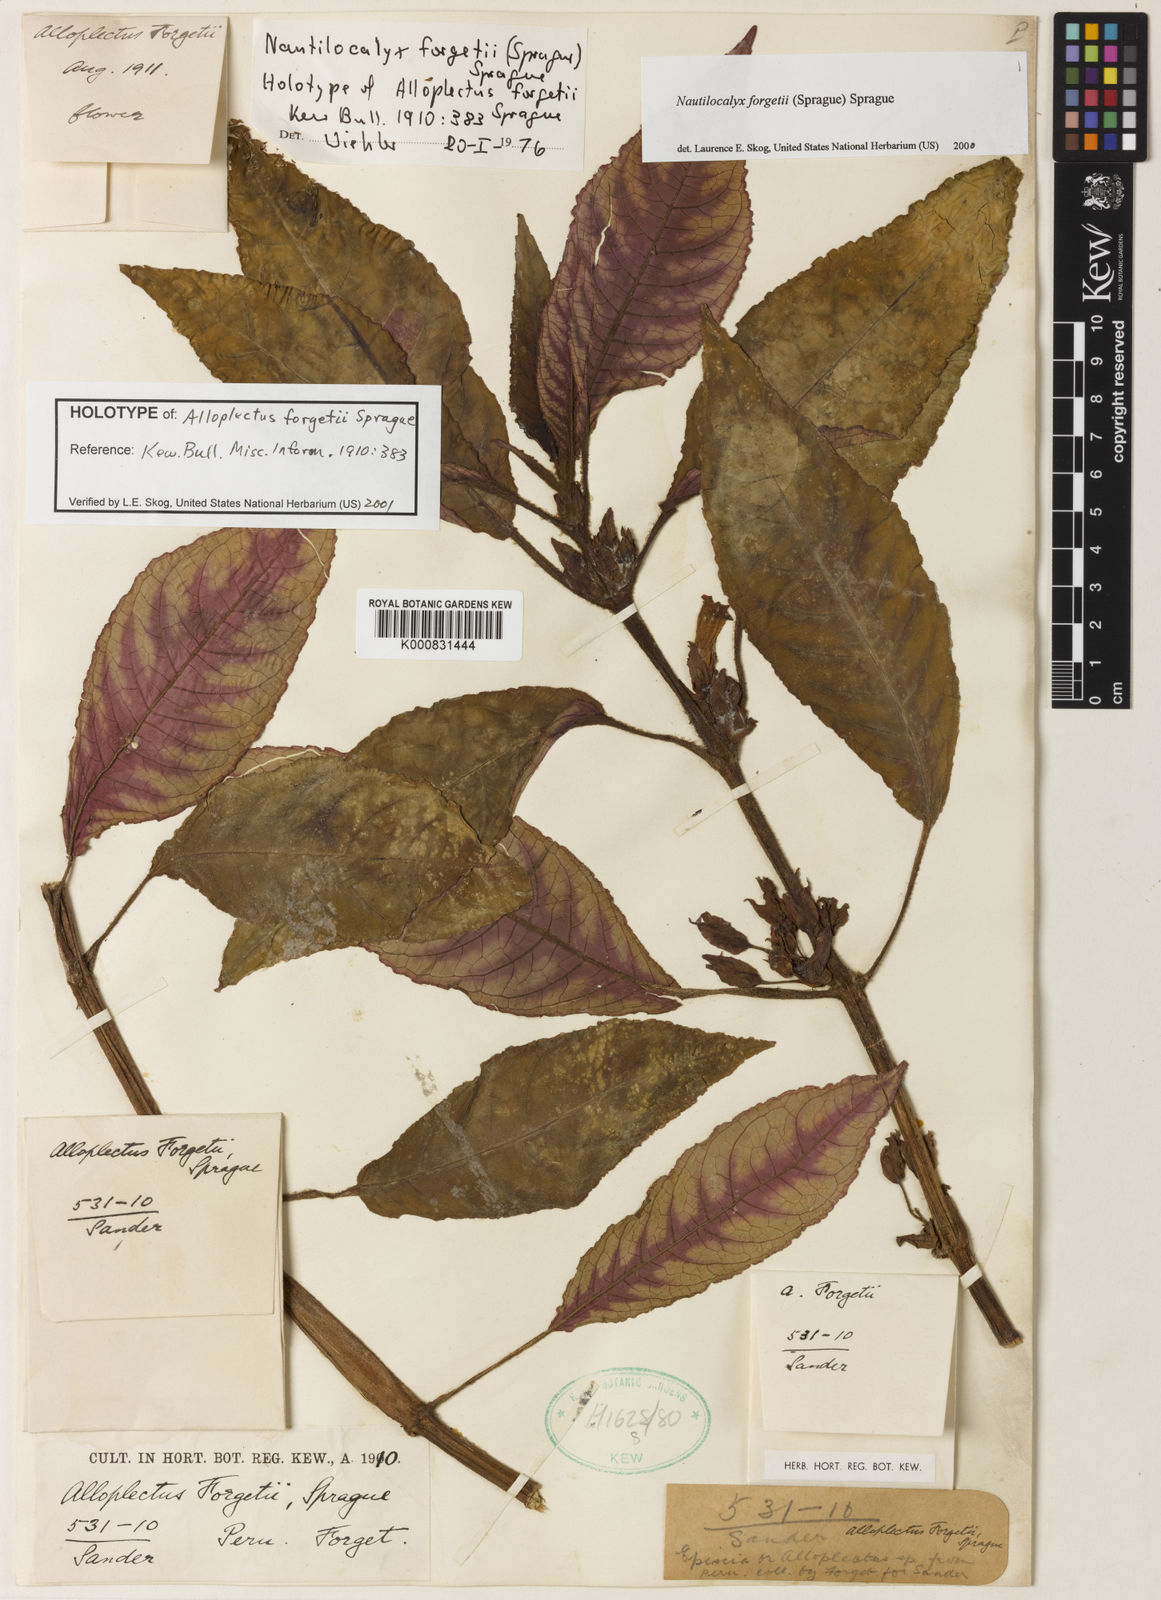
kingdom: Plantae
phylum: Tracheophyta
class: Magnoliopsida
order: Lamiales
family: Gesneriaceae
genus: Nautilocalyx
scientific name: Nautilocalyx forgetii
